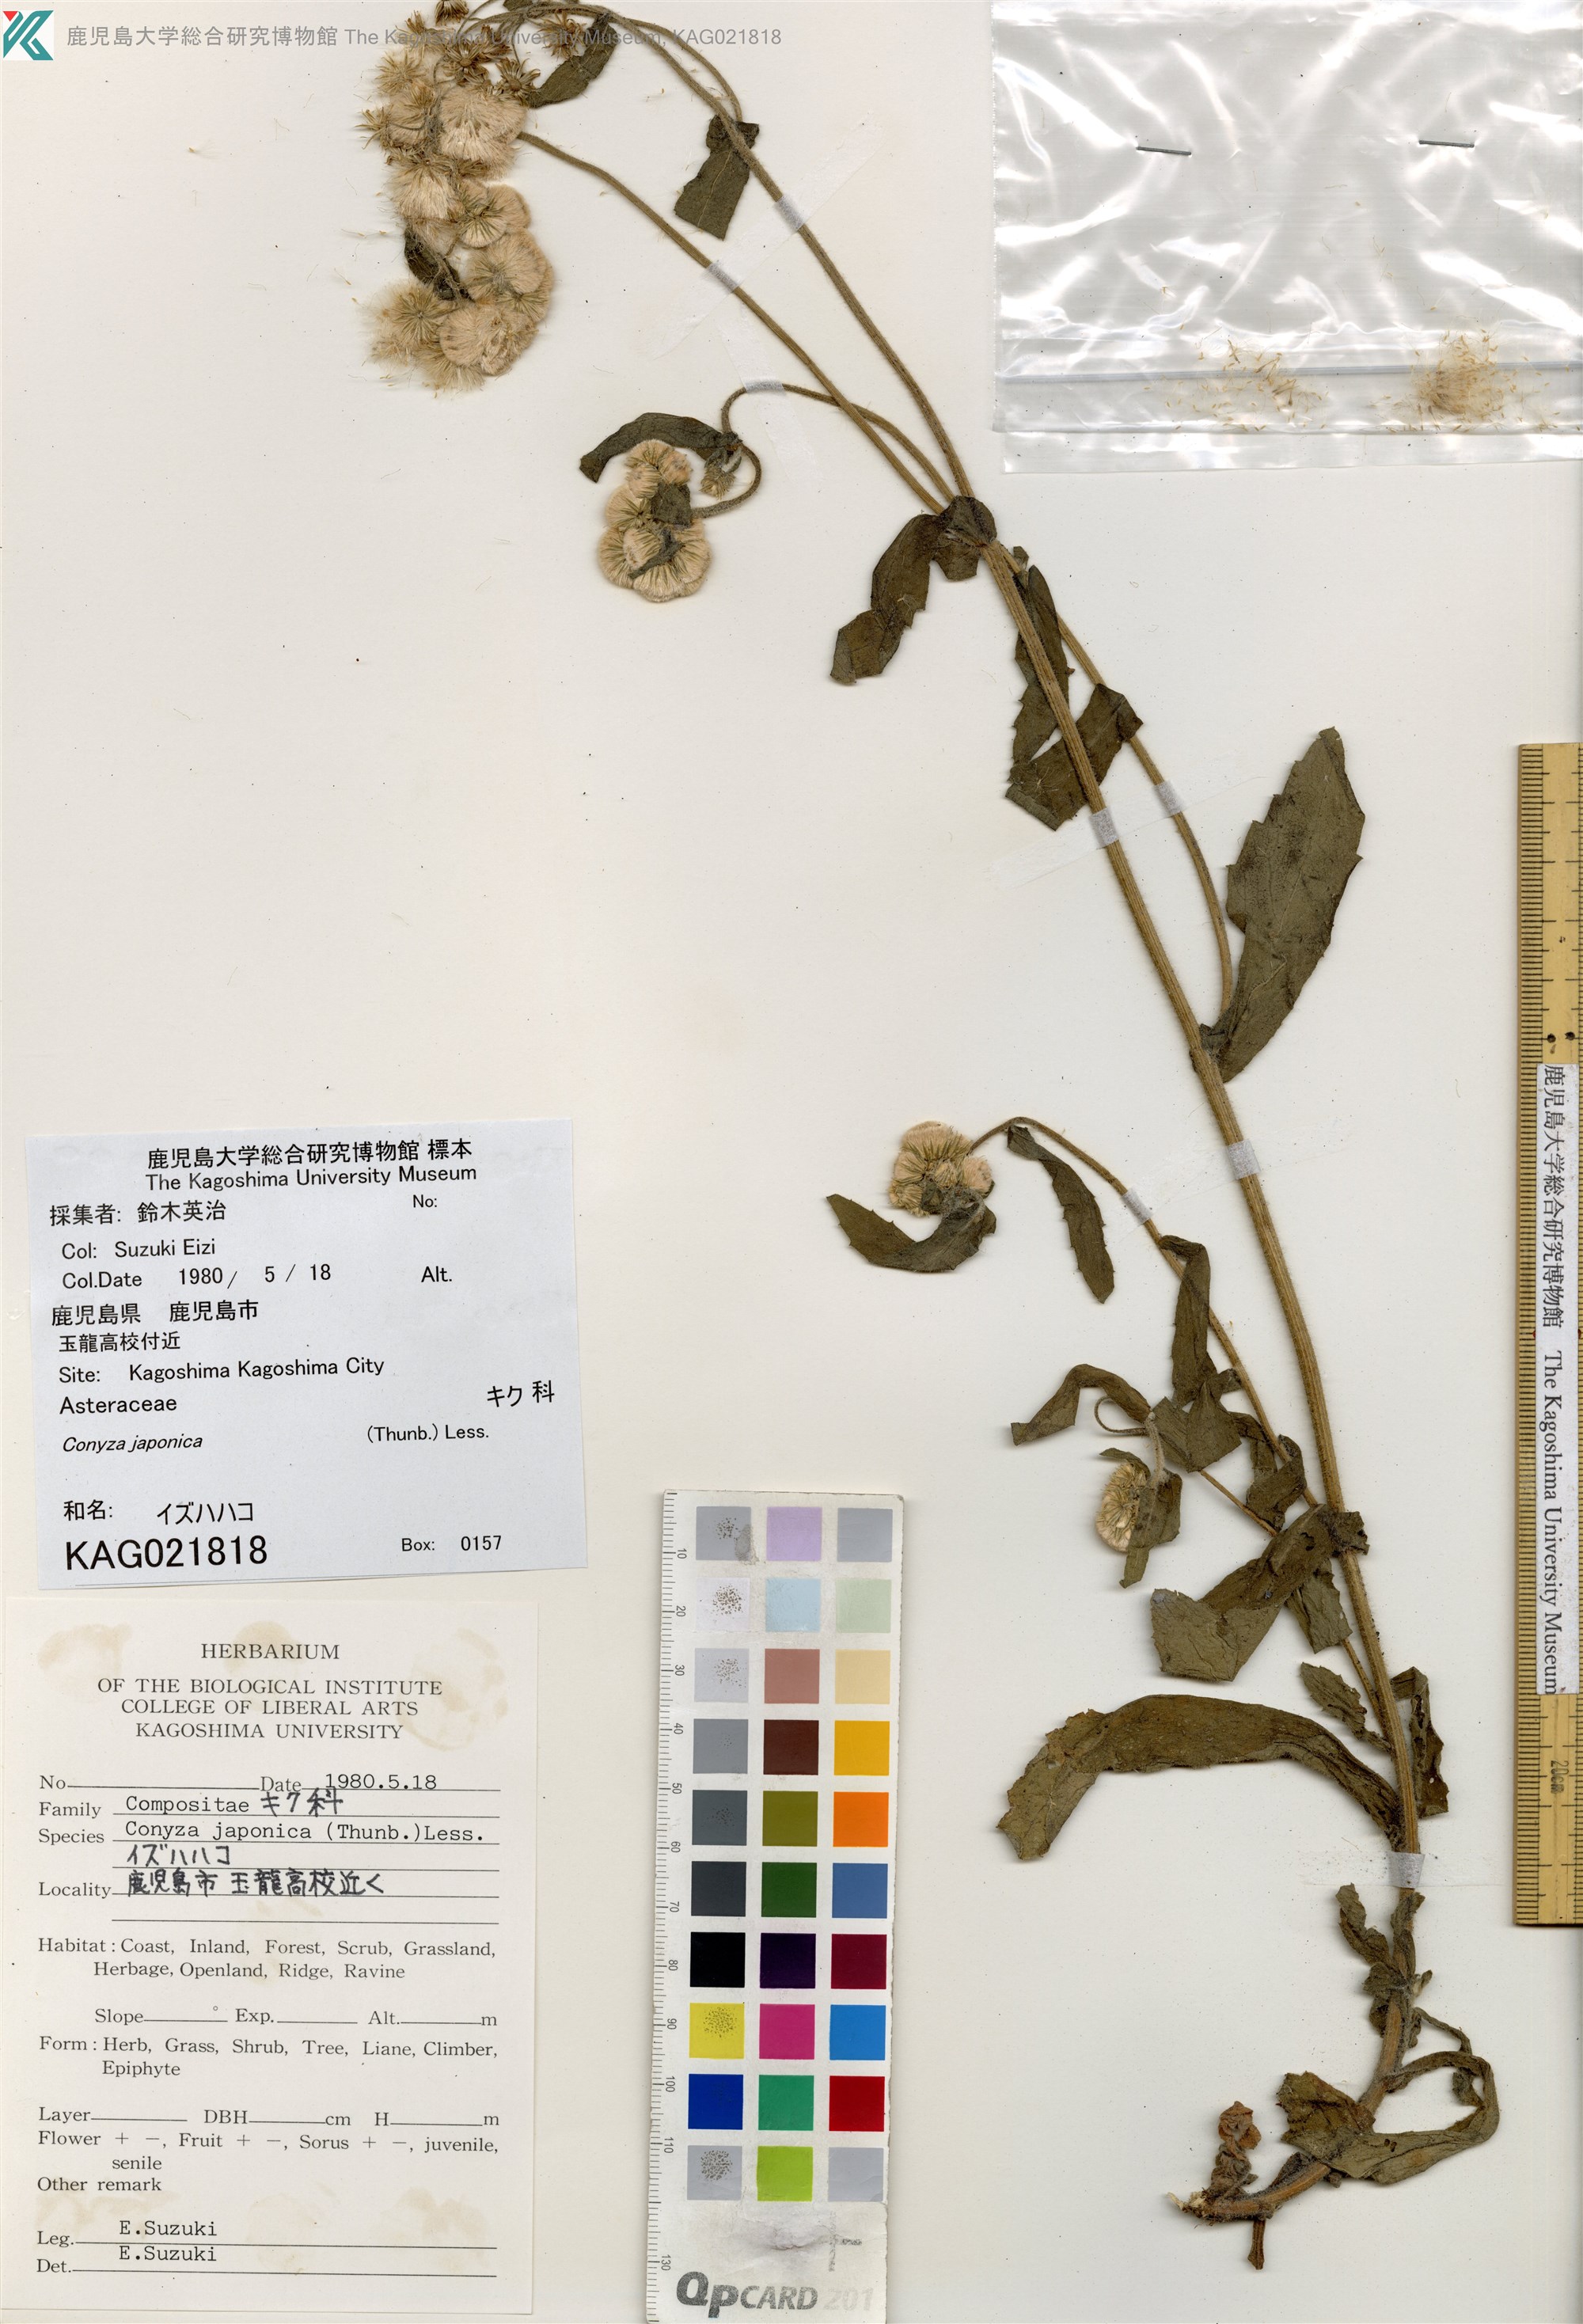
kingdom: Plantae
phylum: Tracheophyta
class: Magnoliopsida
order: Asterales
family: Asteraceae
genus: Eschenbachia
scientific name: Eschenbachia japonica
